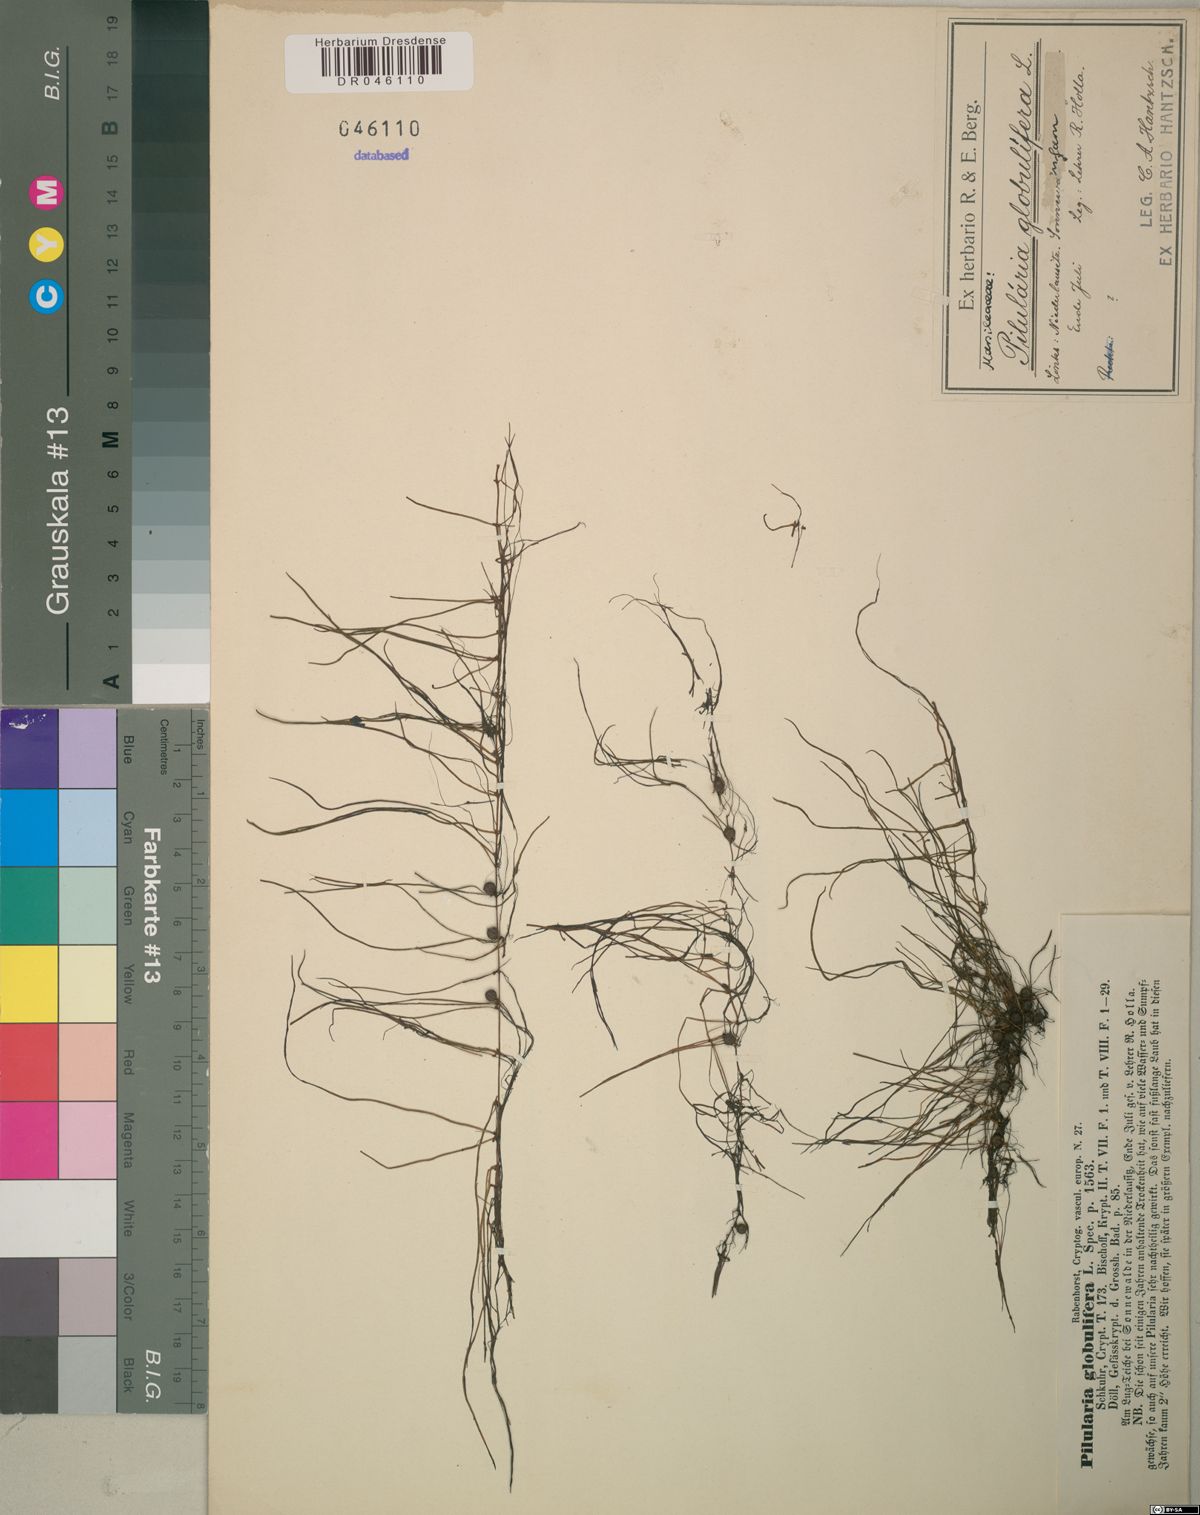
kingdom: Plantae
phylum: Tracheophyta
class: Polypodiopsida
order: Salviniales
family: Marsileaceae
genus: Pilularia
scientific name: Pilularia globulifera
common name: Pillwort
